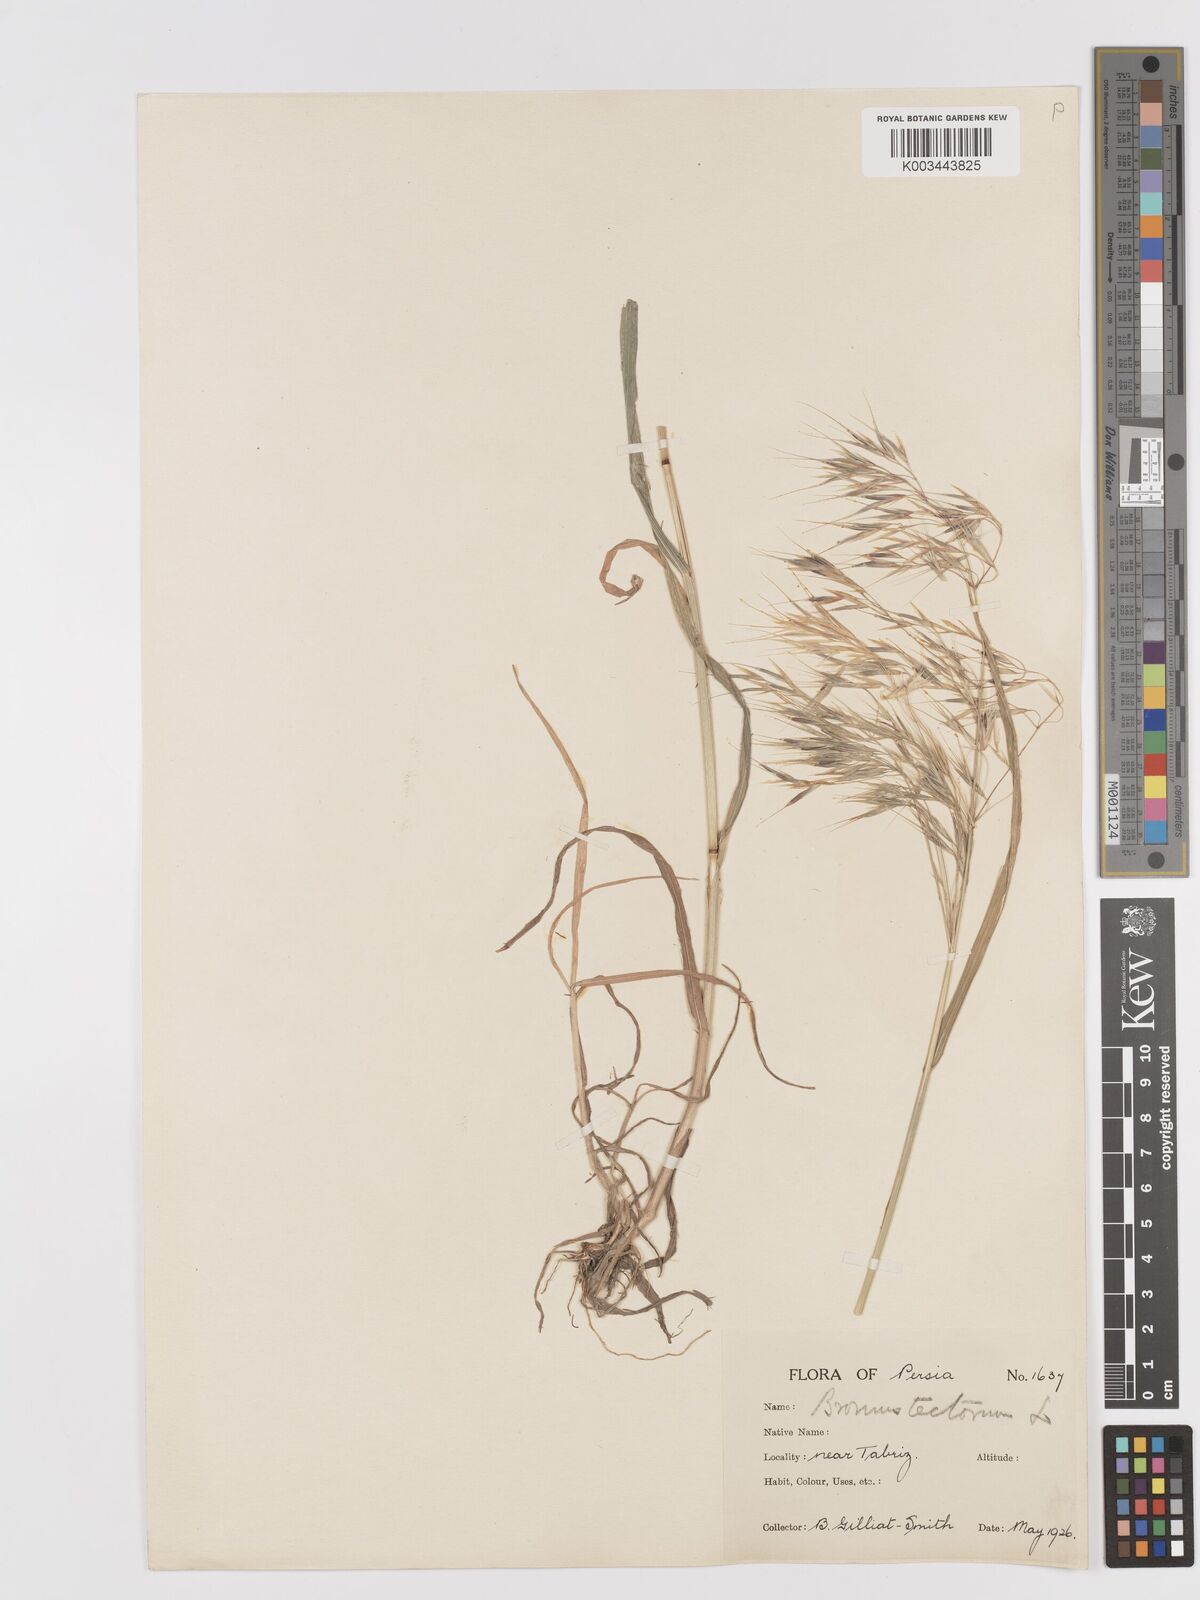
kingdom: Plantae
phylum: Tracheophyta
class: Liliopsida
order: Poales
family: Poaceae
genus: Bromus
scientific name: Bromus tectorum
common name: Cheatgrass
